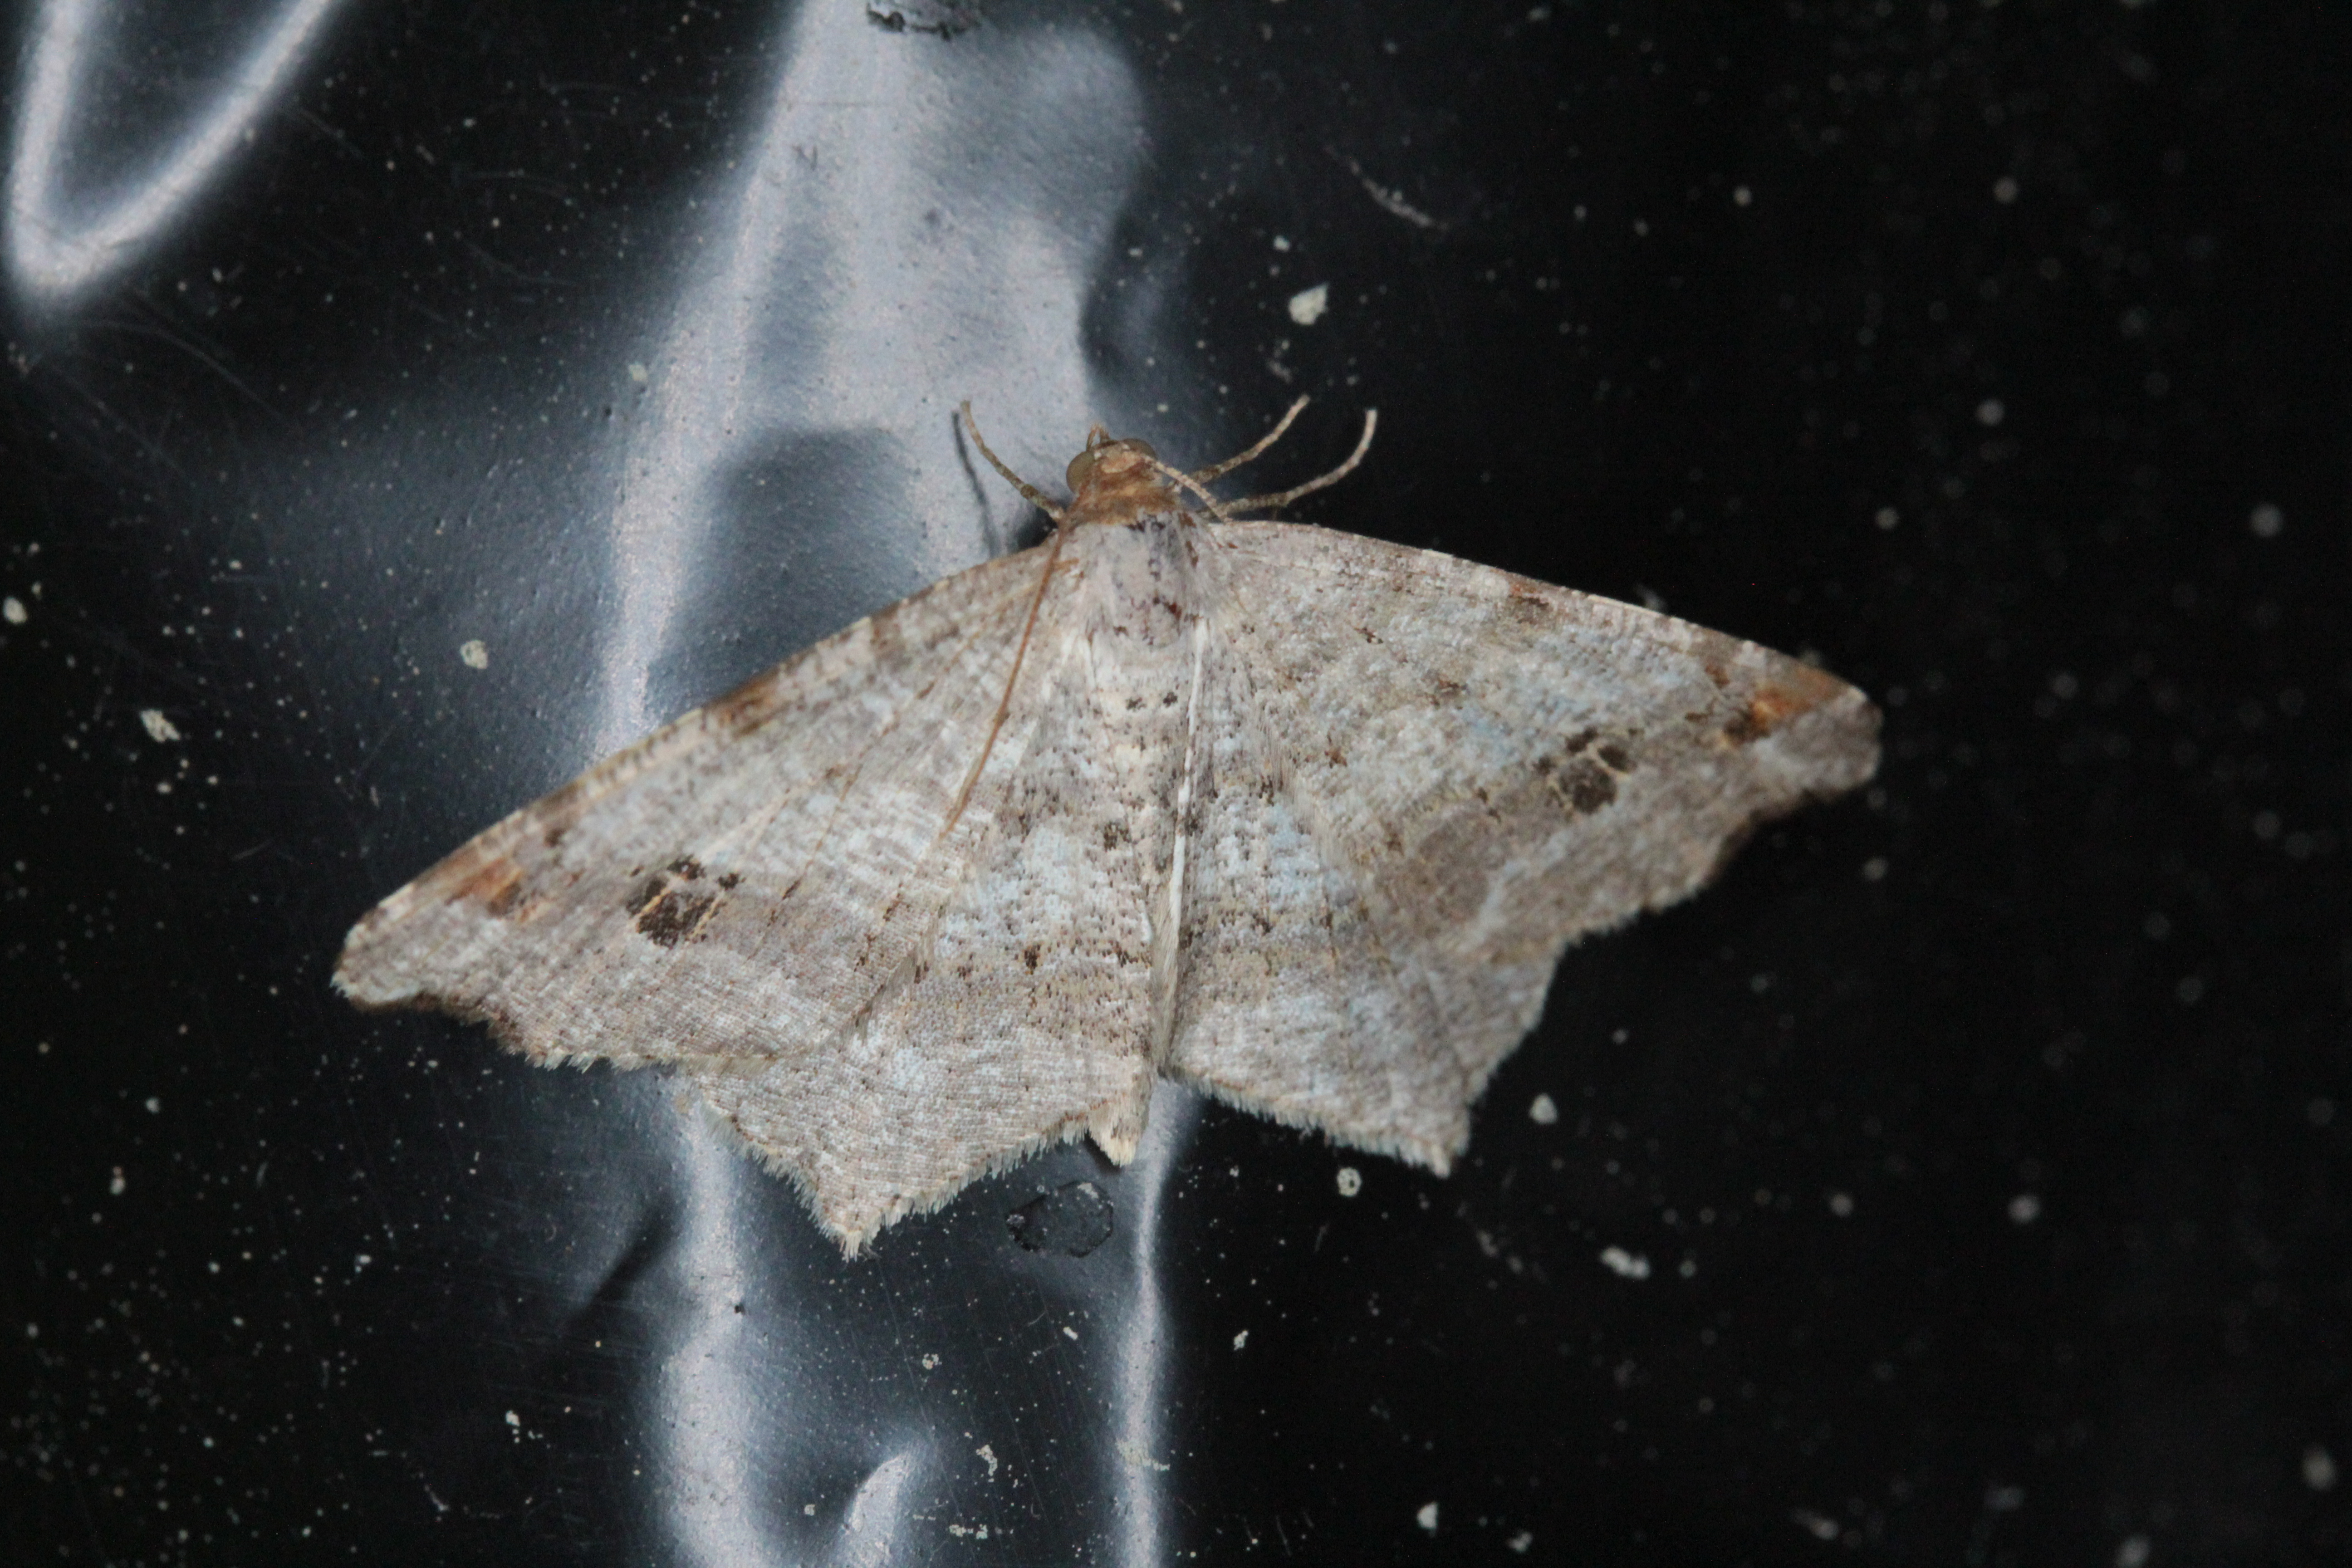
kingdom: Animalia
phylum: Arthropoda
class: Insecta
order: Lepidoptera
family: Geometridae
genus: Macaria
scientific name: Macaria notata
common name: Peacock moth
